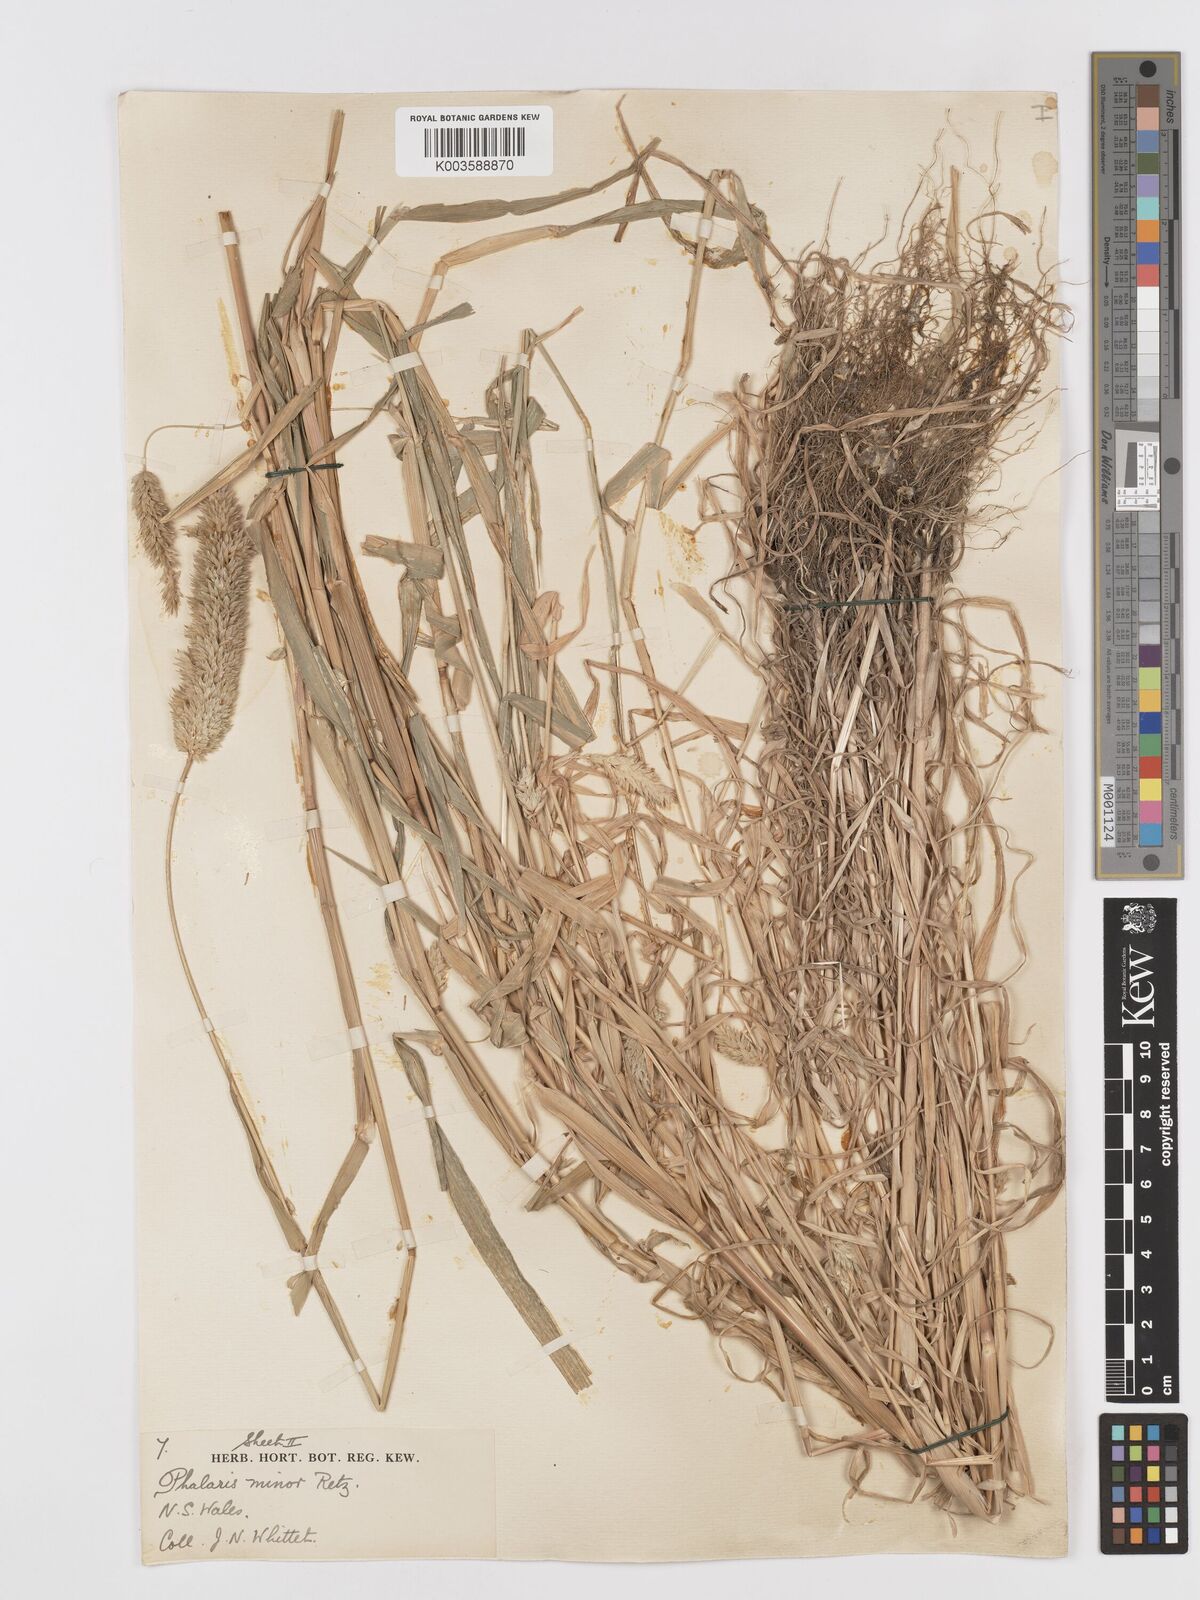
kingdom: Plantae
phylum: Tracheophyta
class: Liliopsida
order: Poales
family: Poaceae
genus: Phalaris
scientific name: Phalaris minor
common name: Littleseed canarygrass
